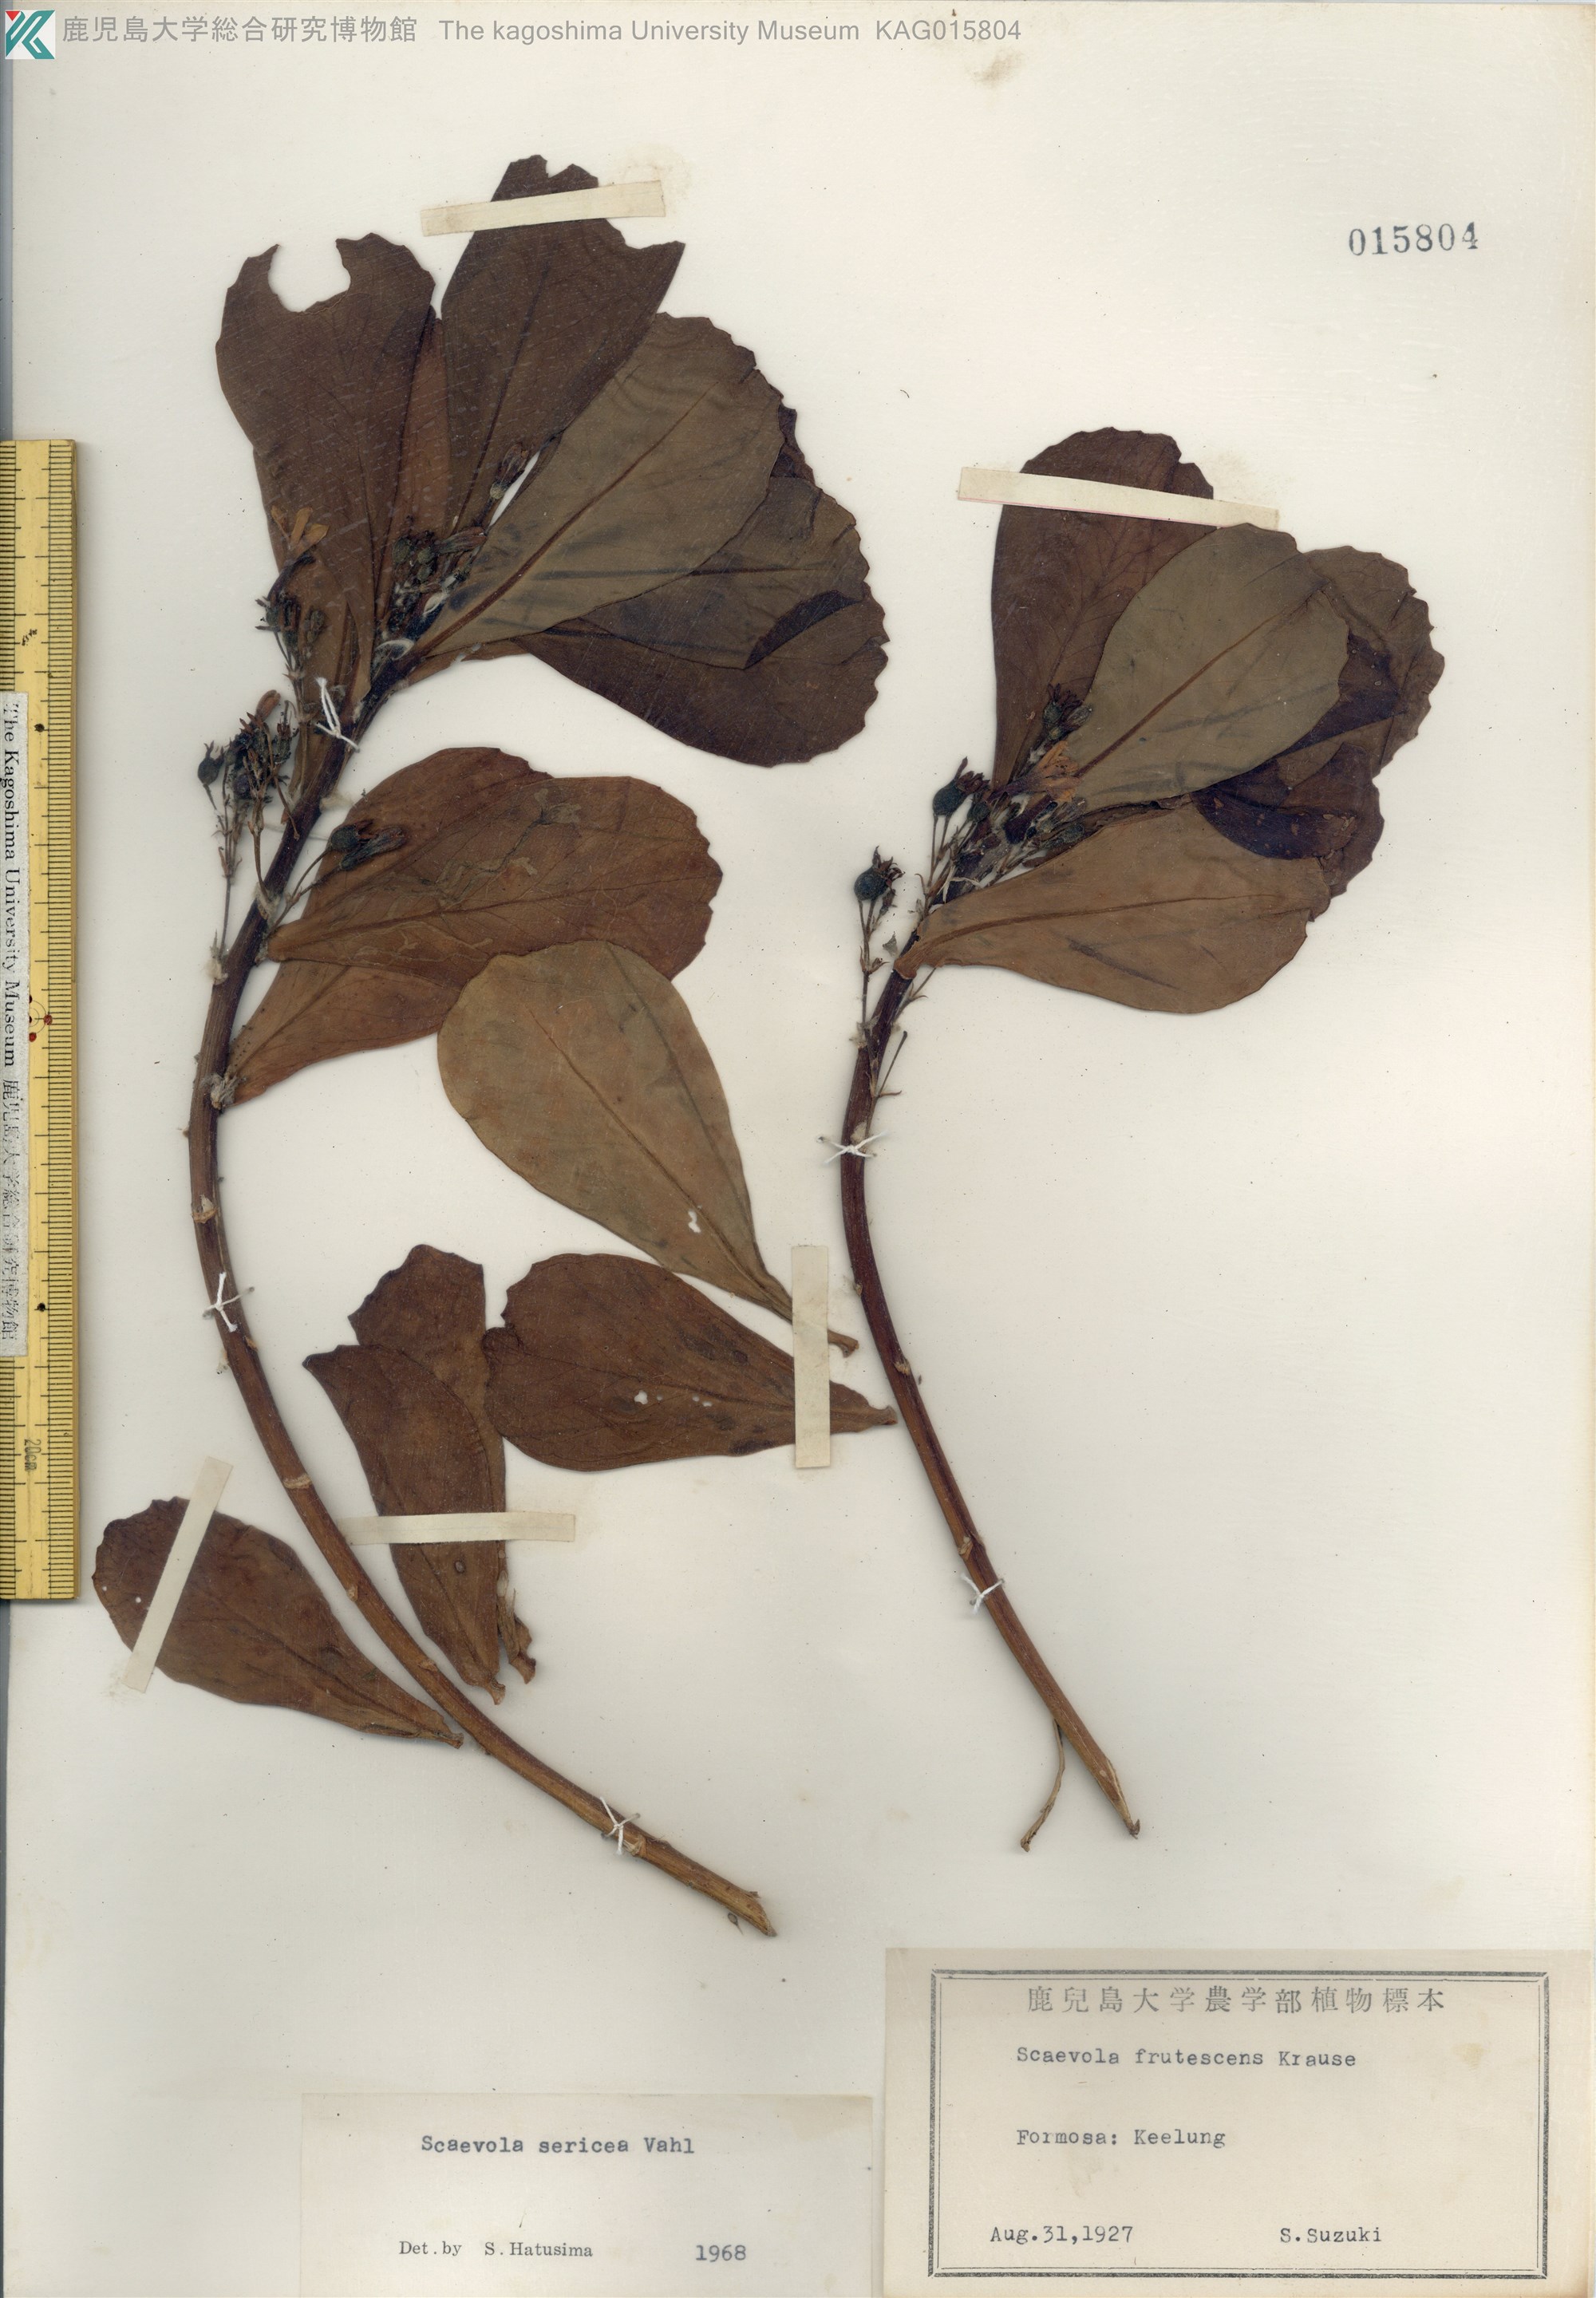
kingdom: Plantae
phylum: Tracheophyta
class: Magnoliopsida
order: Asterales
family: Goodeniaceae
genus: Scaevola
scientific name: Scaevola taccada
